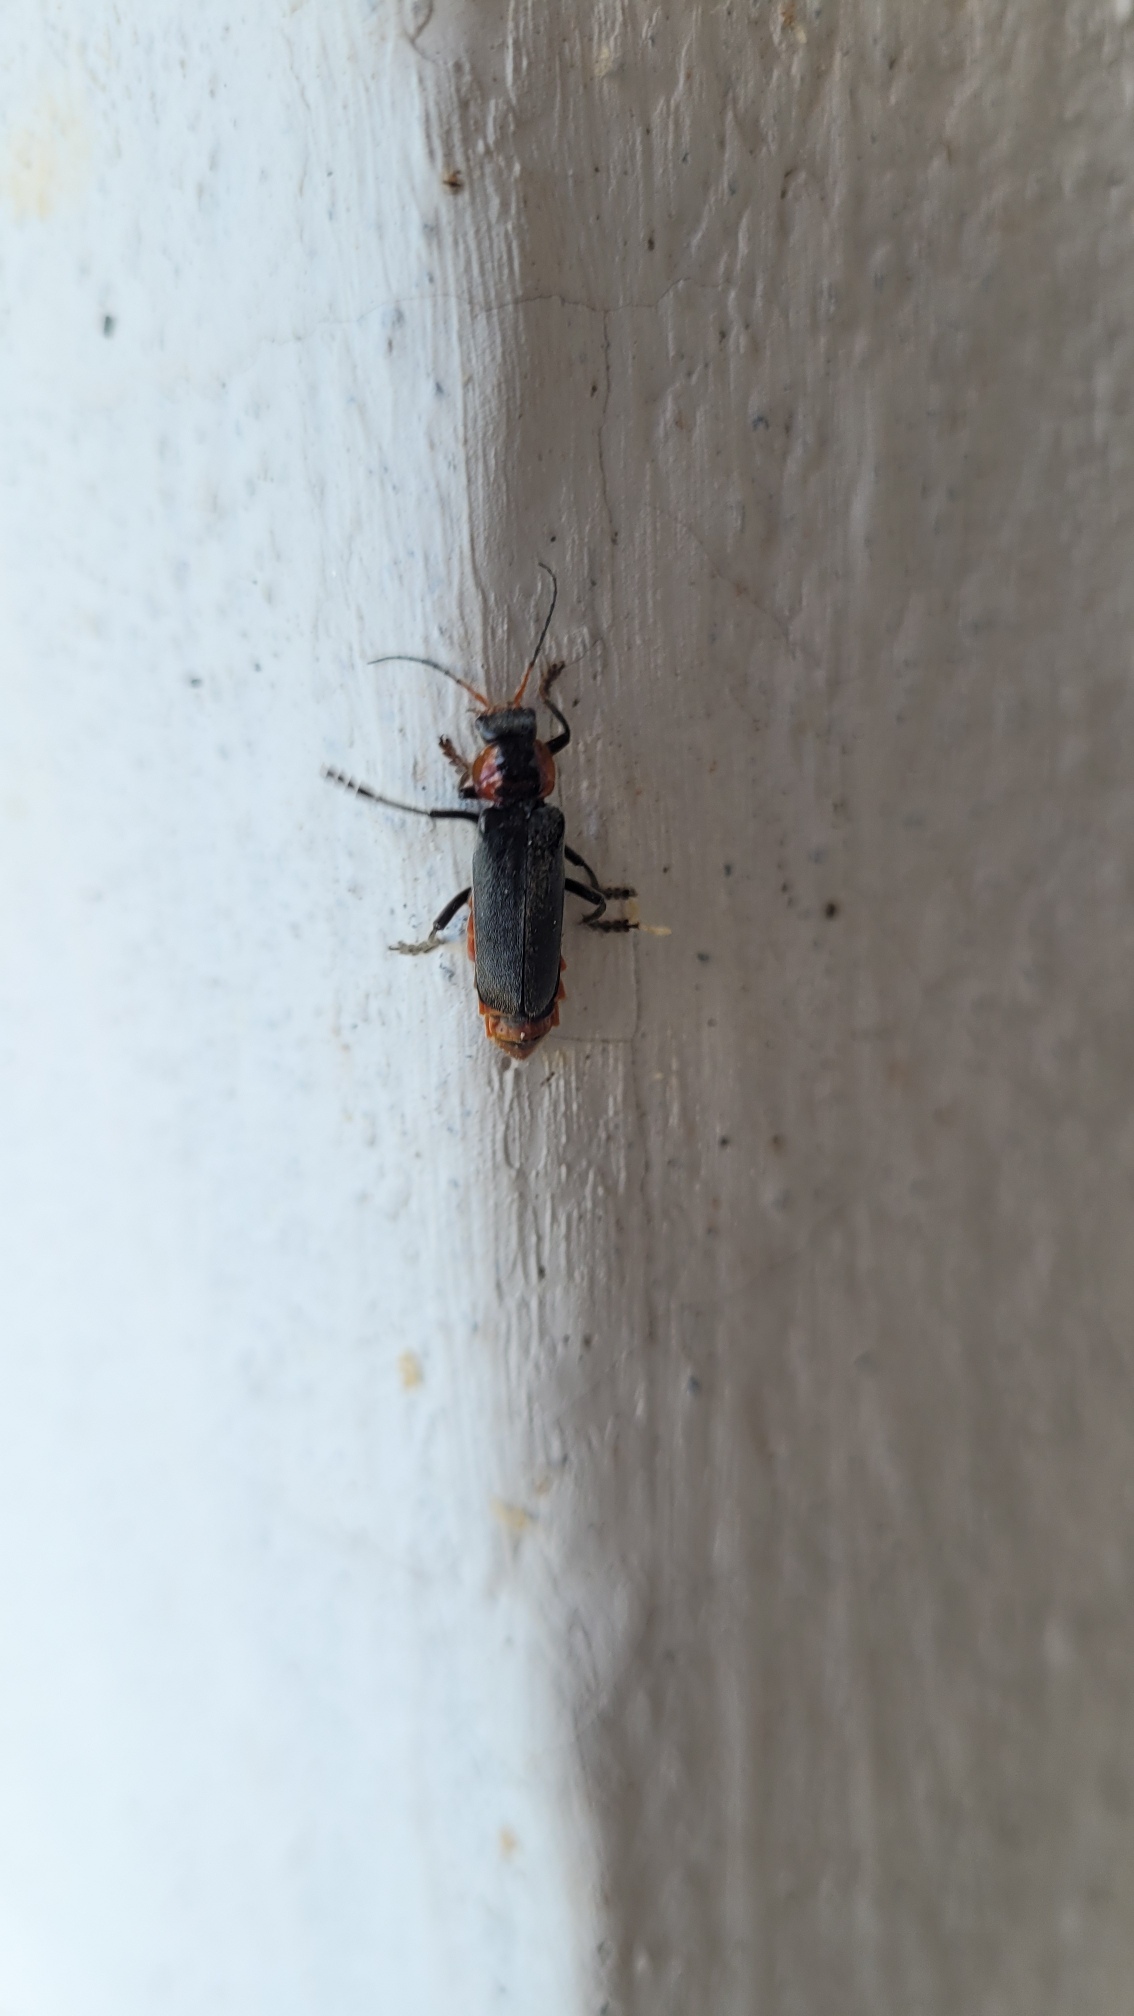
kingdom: Animalia
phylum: Arthropoda
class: Insecta
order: Coleoptera
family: Cantharidae
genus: Cantharis
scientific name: Cantharis fusca
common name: Stor blødvinge
